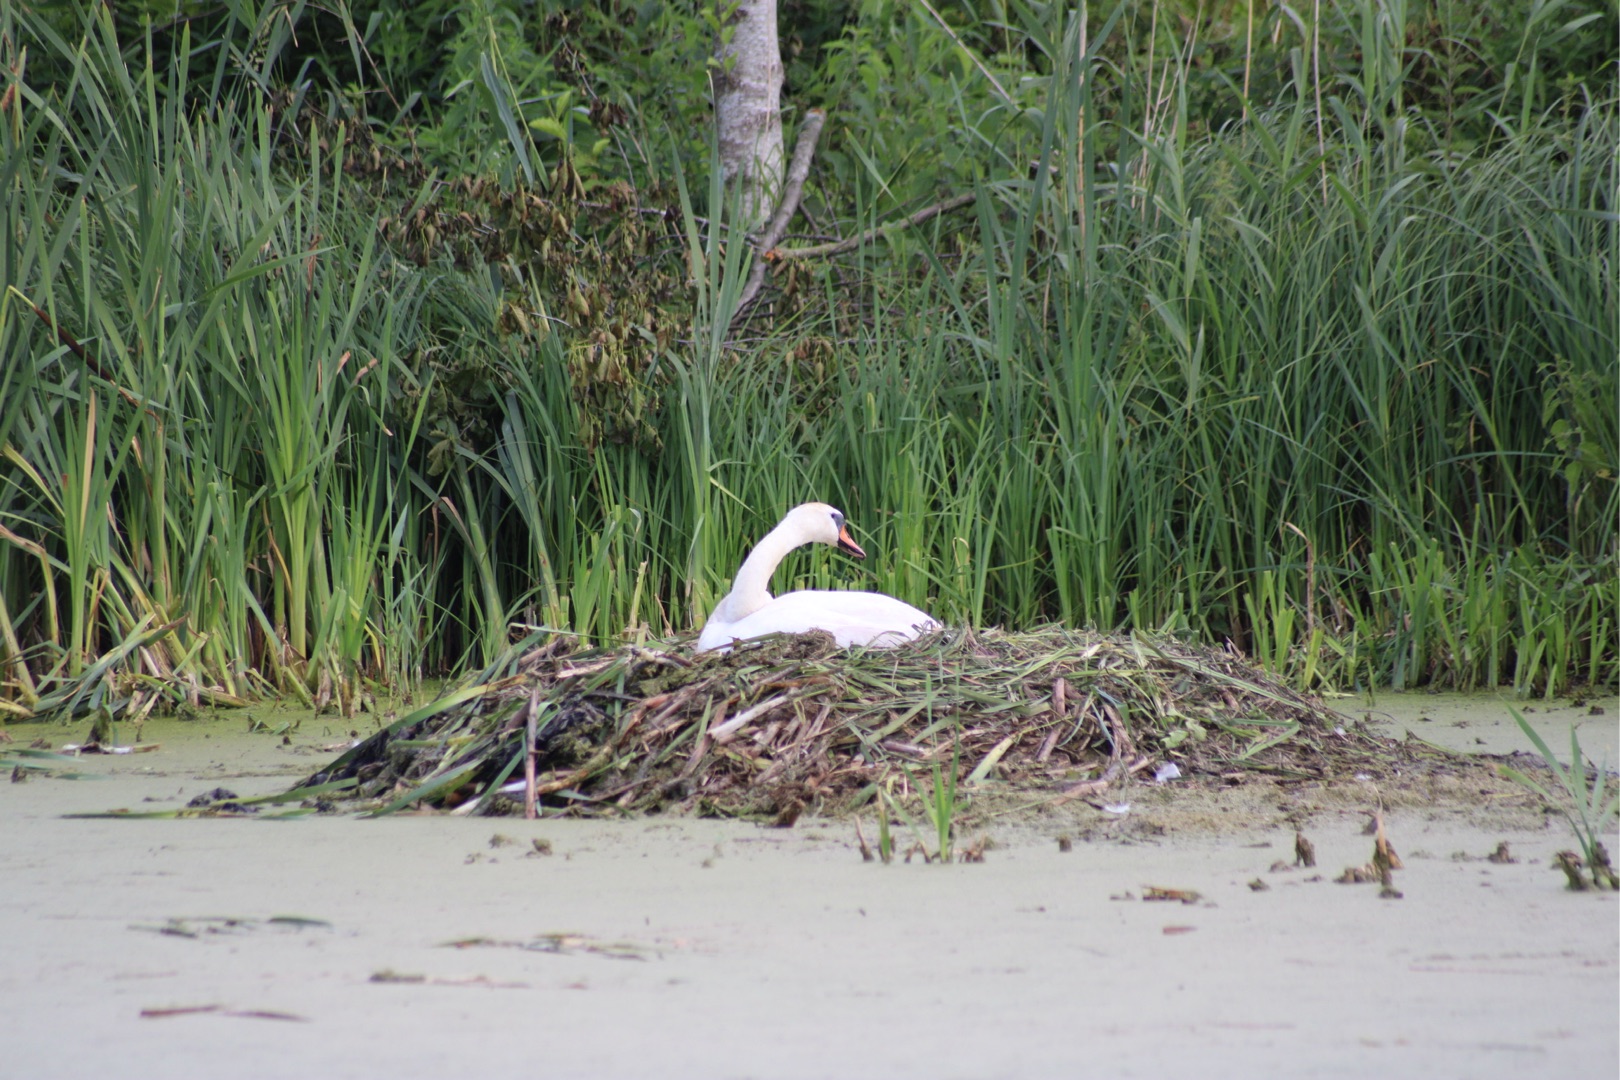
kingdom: Animalia
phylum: Chordata
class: Aves
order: Anseriformes
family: Anatidae
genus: Cygnus
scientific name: Cygnus olor
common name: Knopsvane
